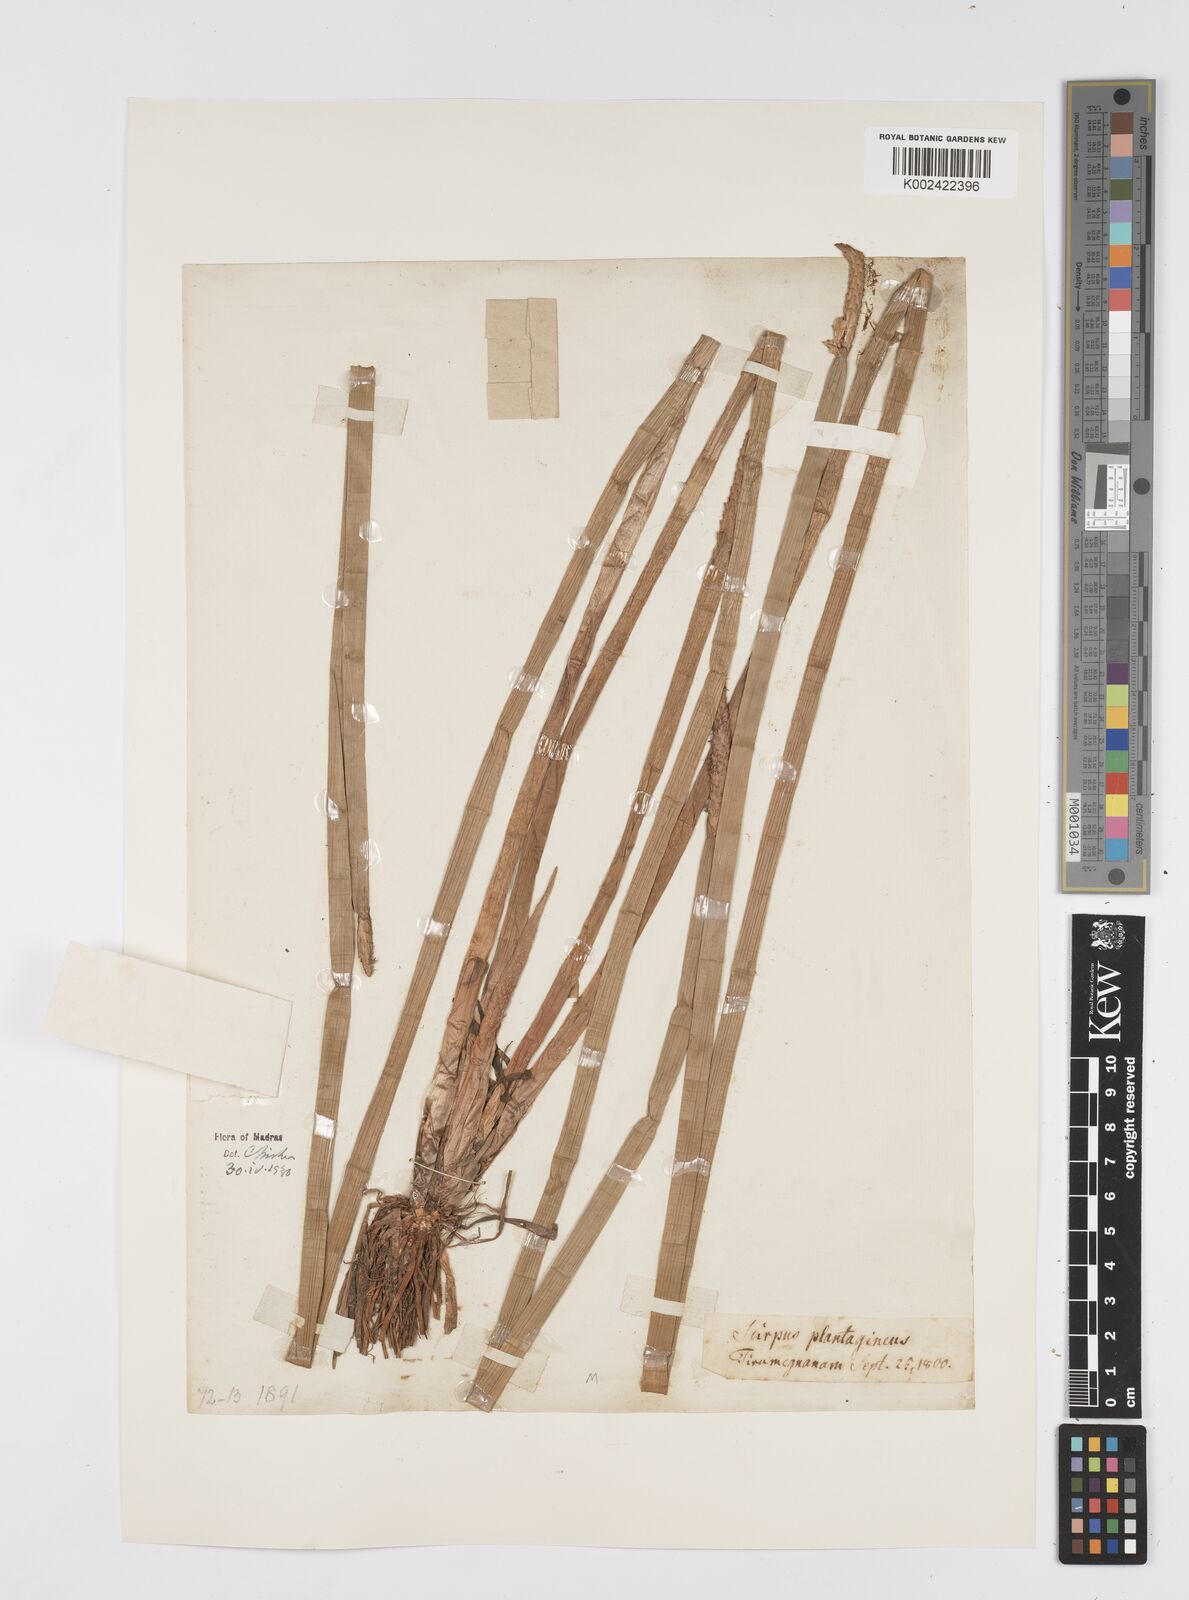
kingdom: Plantae
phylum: Tracheophyta
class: Liliopsida
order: Poales
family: Cyperaceae
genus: Eleocharis
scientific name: Eleocharis dulcis
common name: Chinese water chestnut
